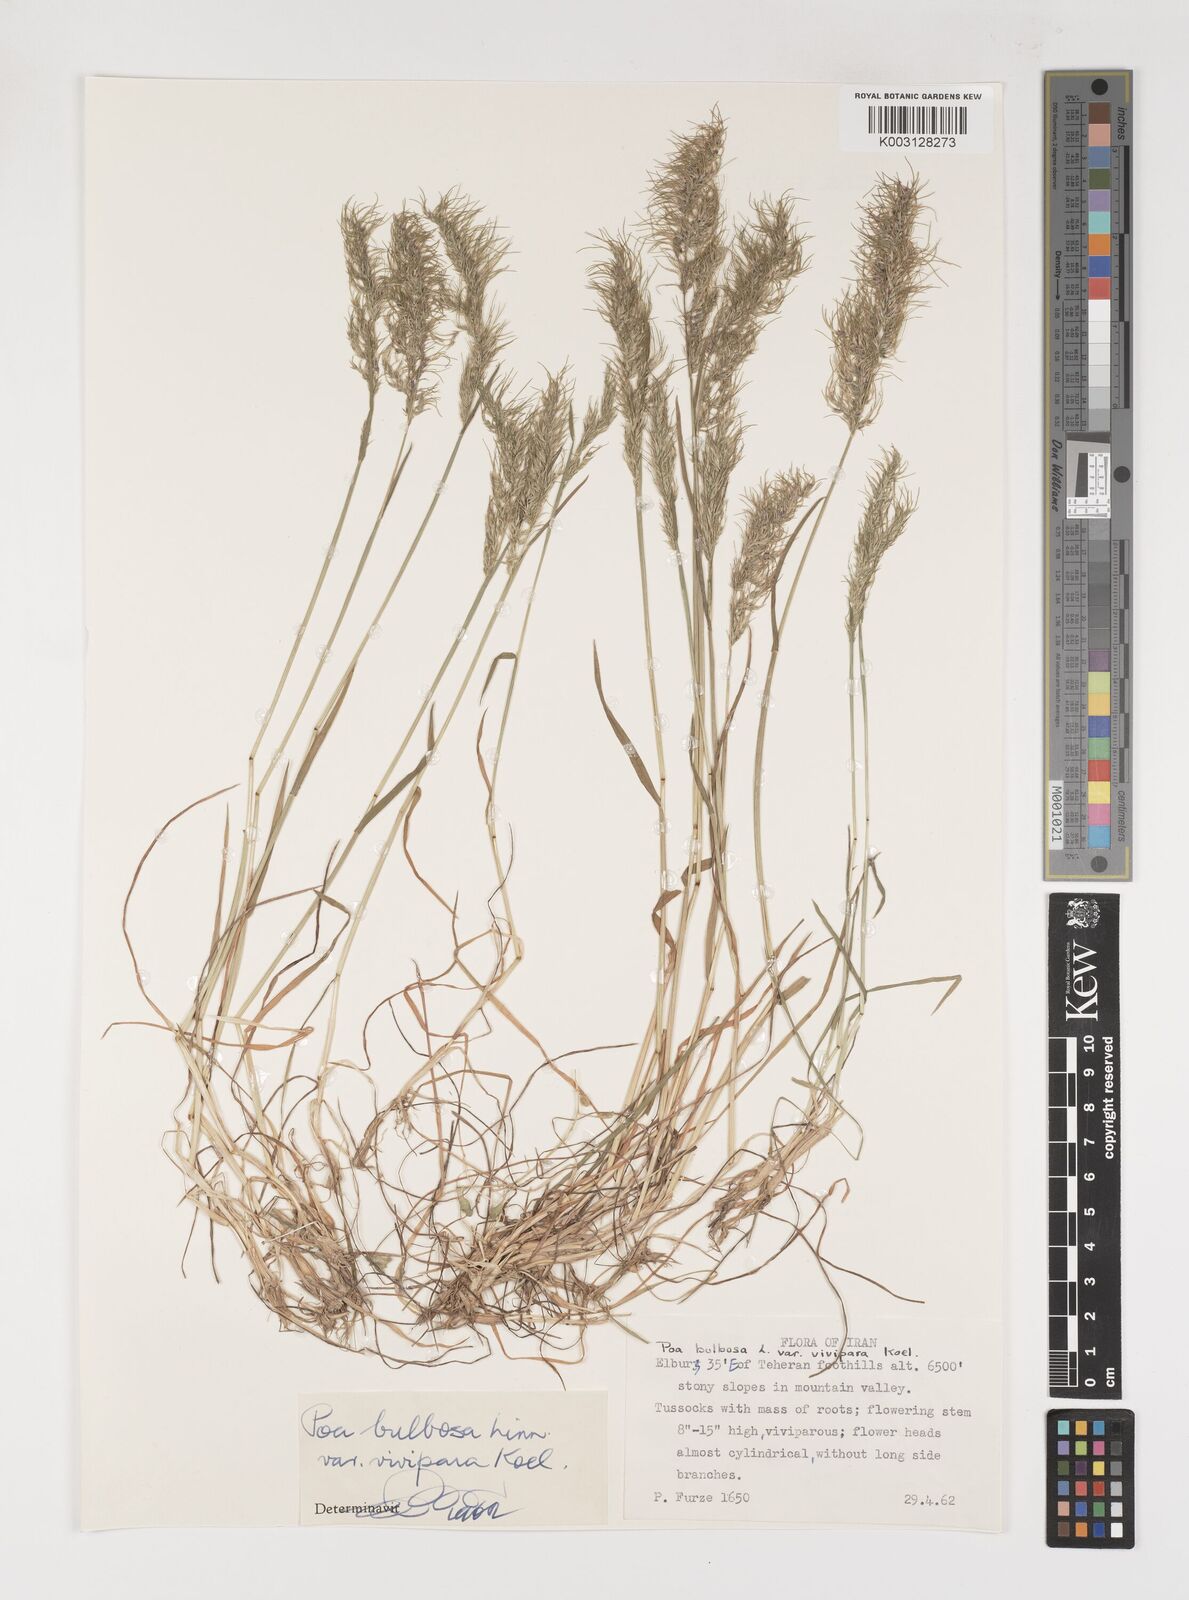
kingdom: Plantae
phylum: Tracheophyta
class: Liliopsida
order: Poales
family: Poaceae
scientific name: Poaceae
